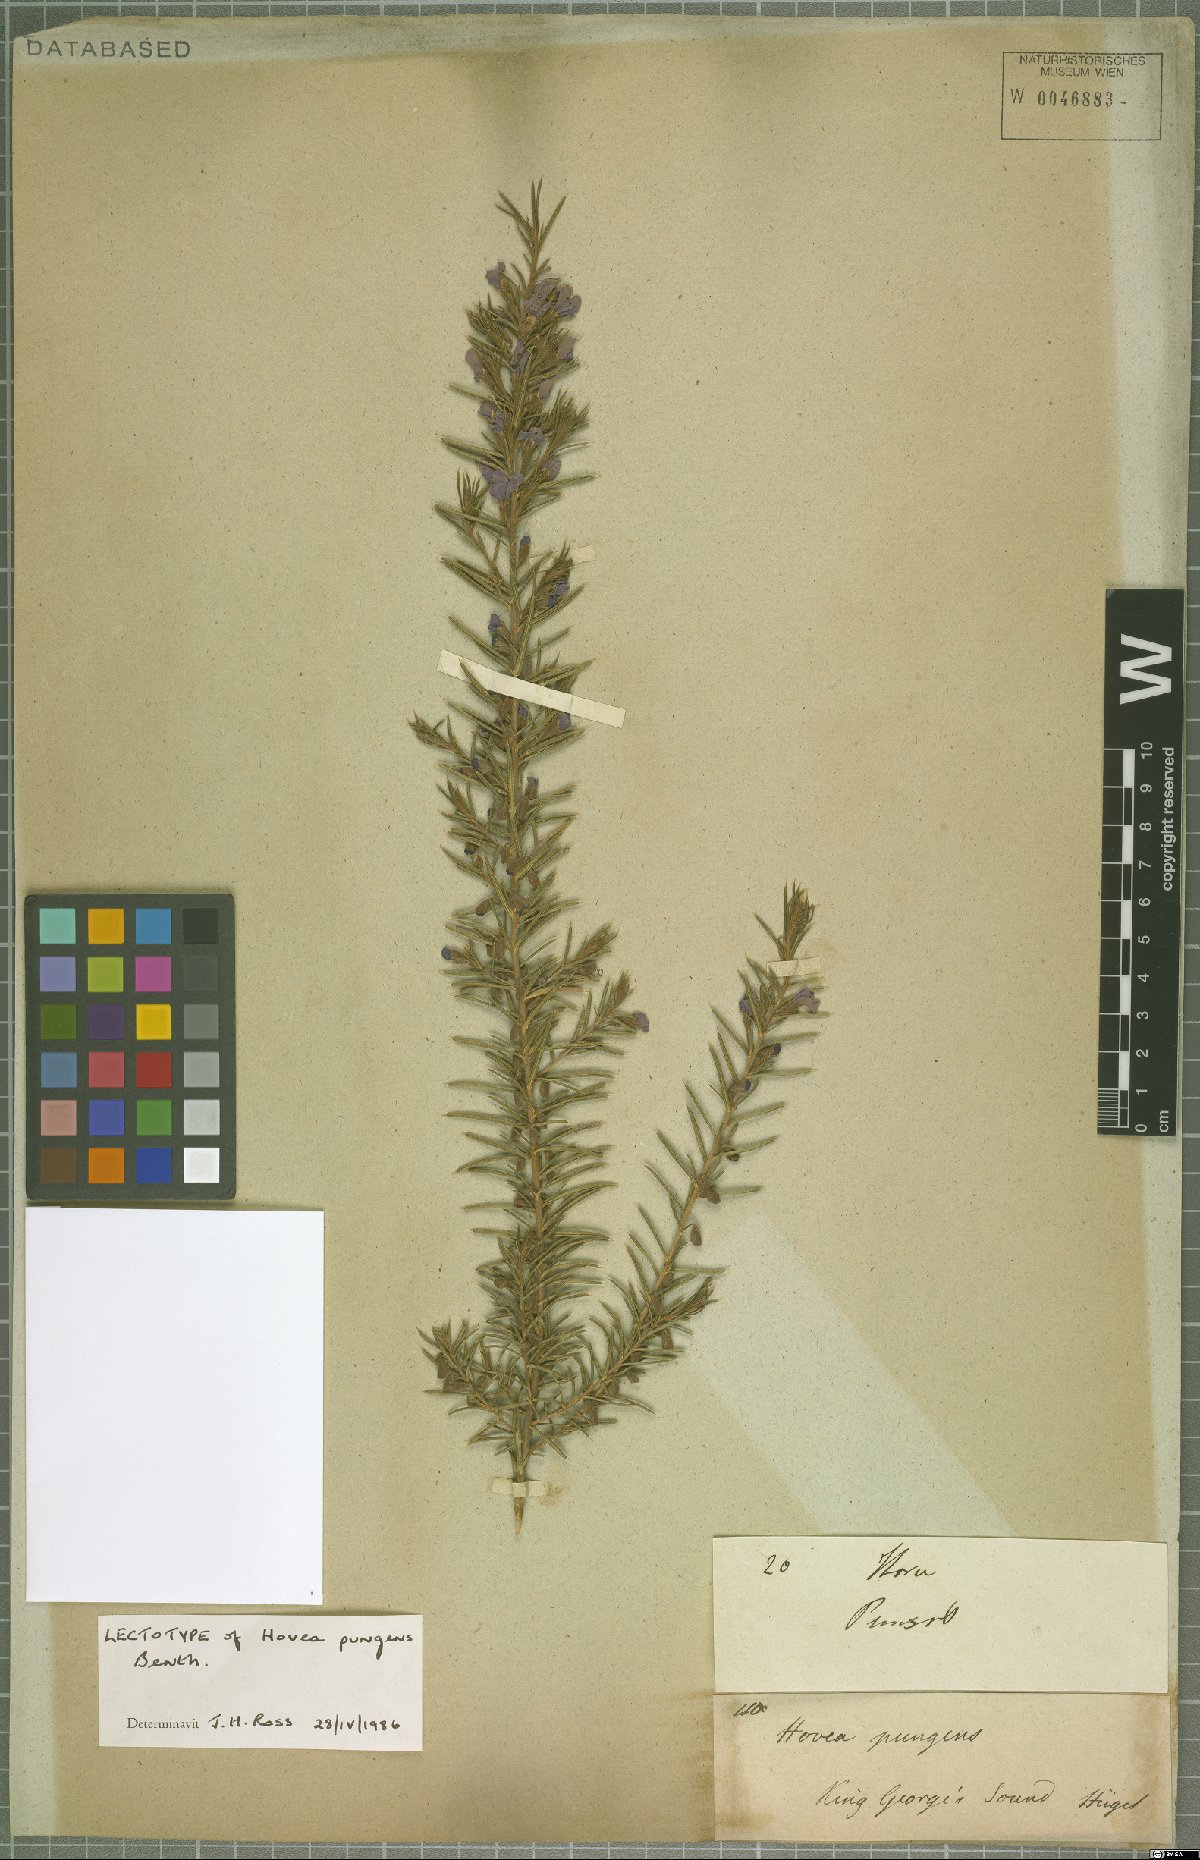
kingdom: Plantae
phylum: Tracheophyta
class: Magnoliopsida
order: Fabales
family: Fabaceae
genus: Hovea
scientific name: Hovea pungens
